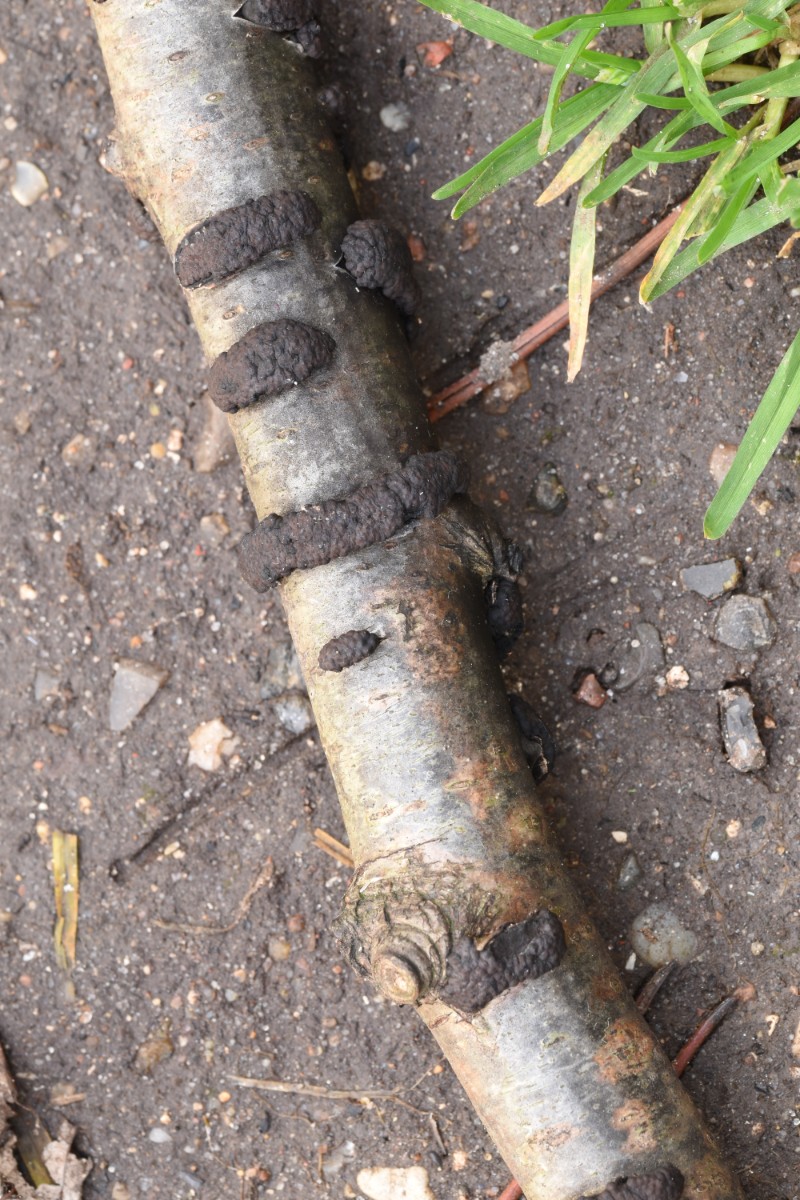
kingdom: Fungi
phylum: Ascomycota
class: Sordariomycetes
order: Xylariales
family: Hypoxylaceae
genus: Jackrogersella
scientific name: Jackrogersella multiformis
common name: foranderlig kulbær
